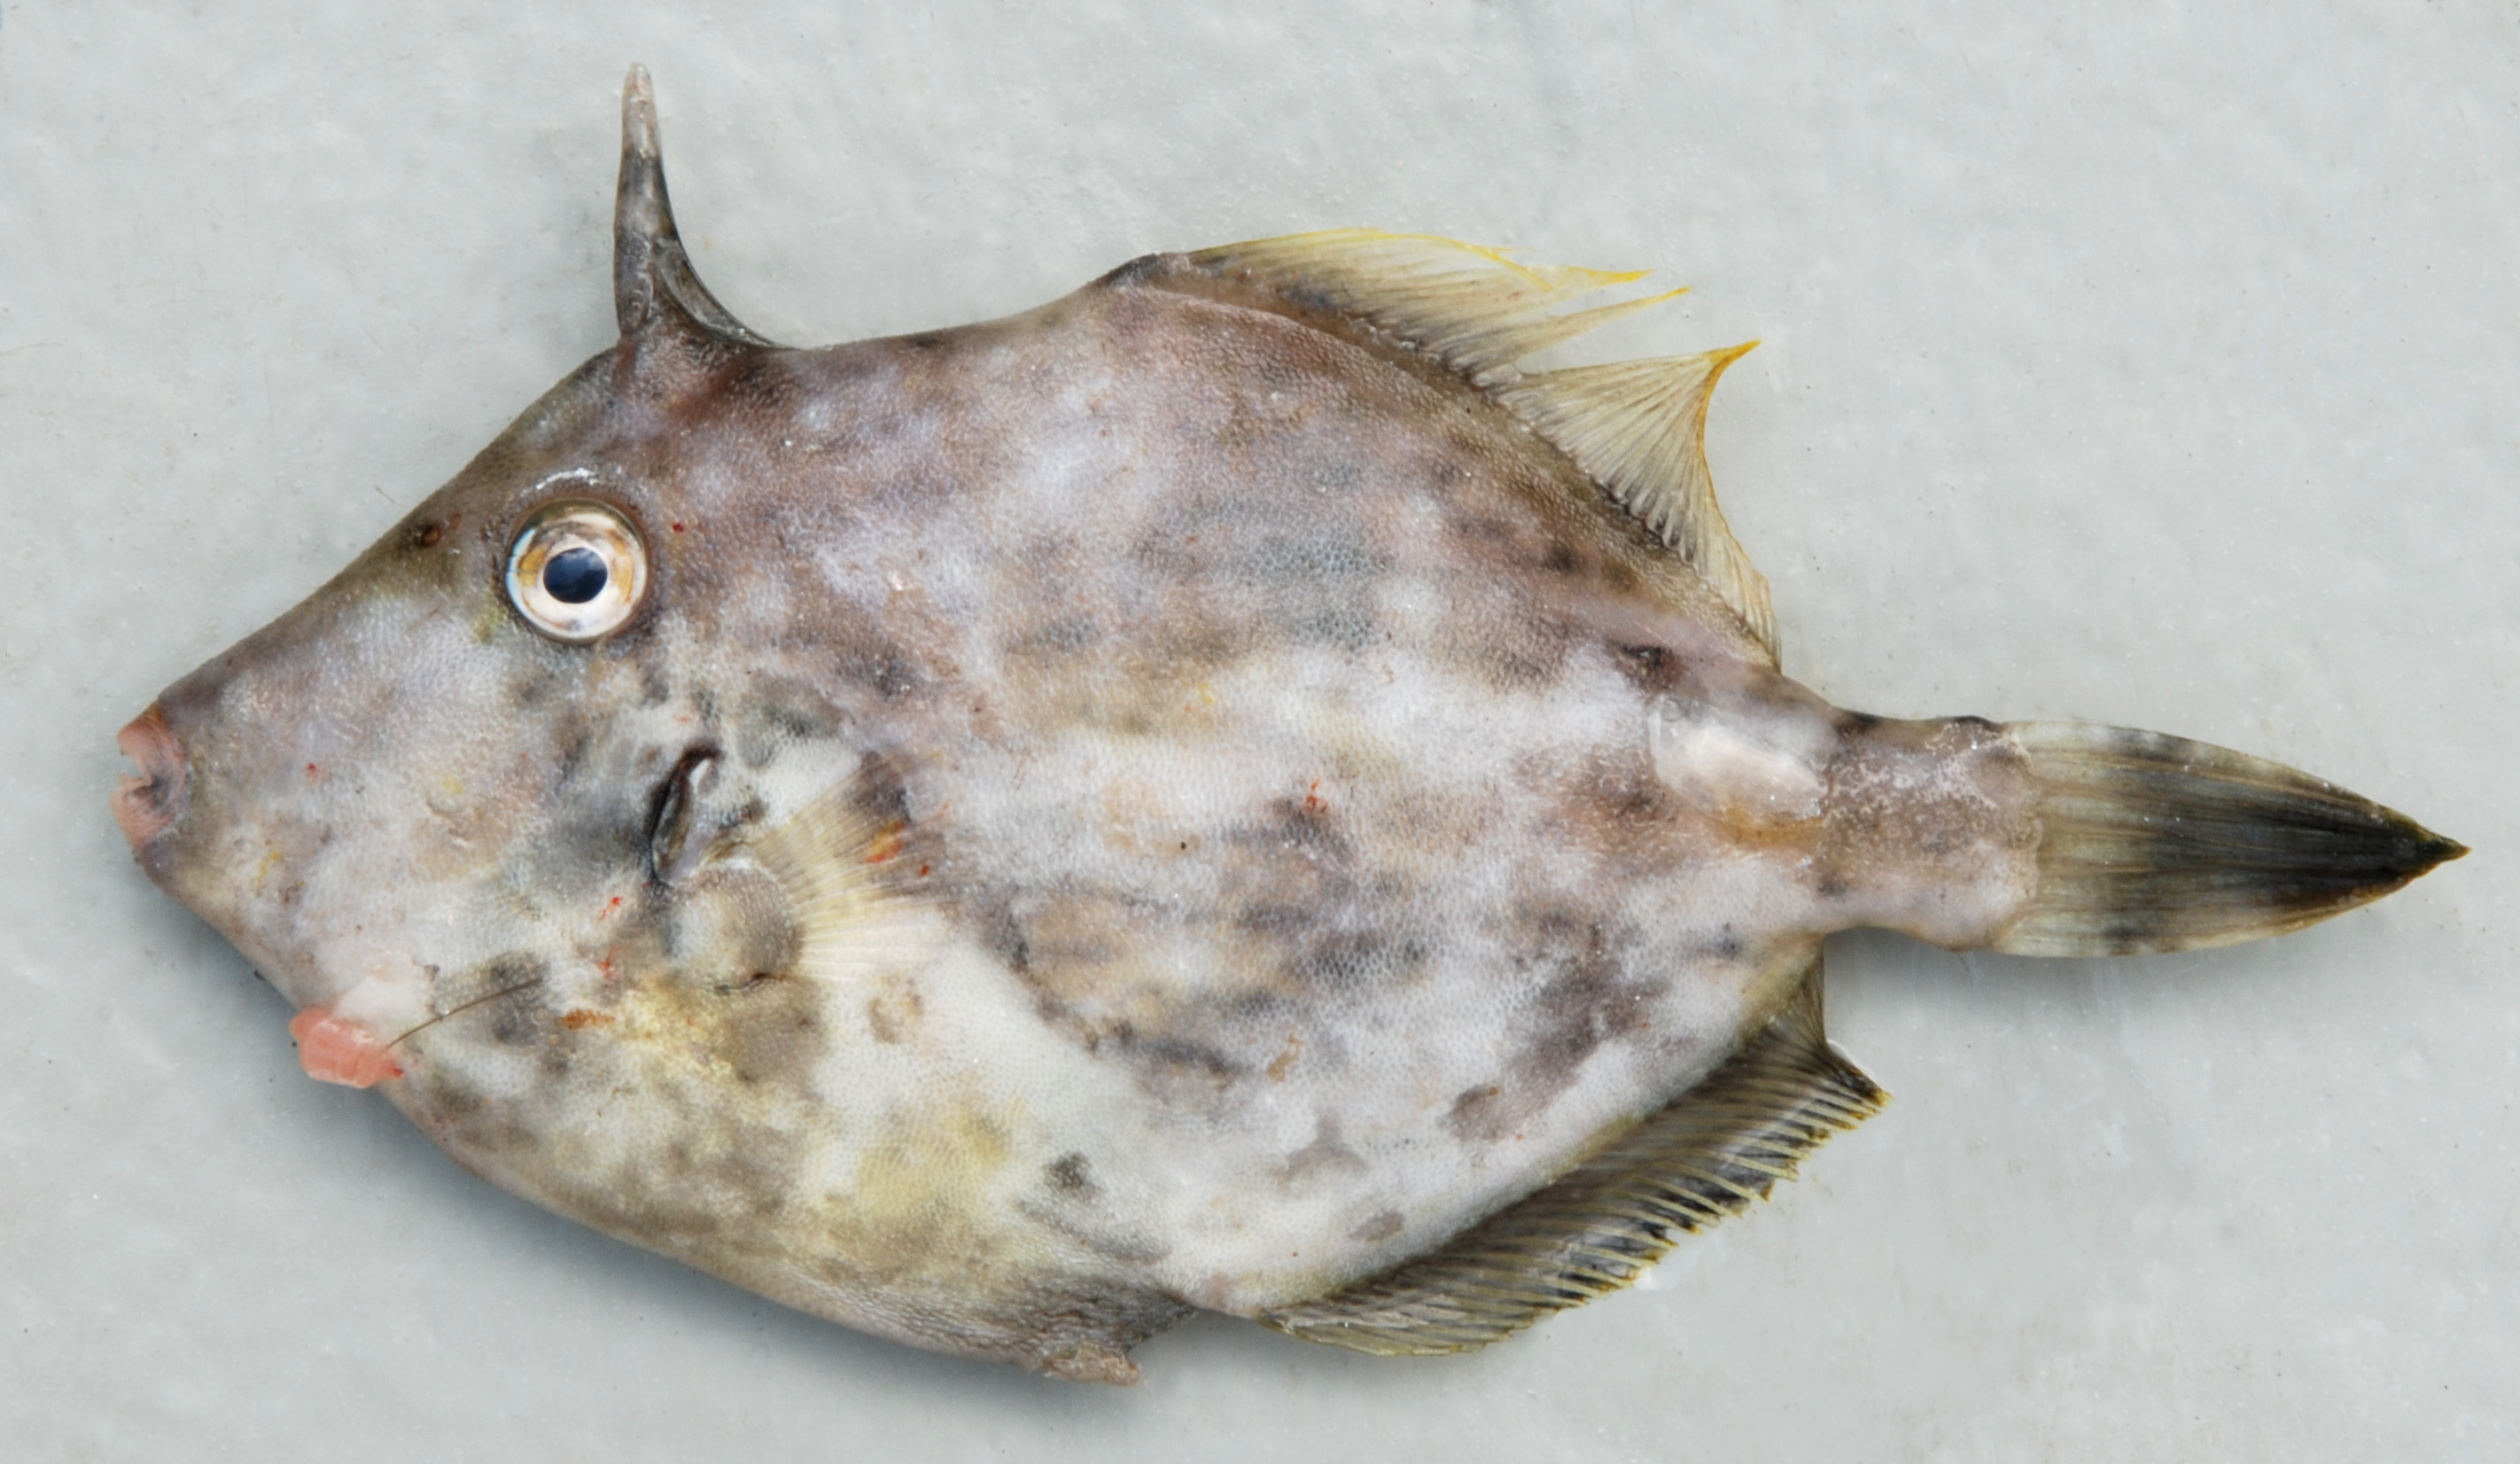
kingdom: Animalia
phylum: Chordata
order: Tetraodontiformes
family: Monacanthidae
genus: Stephanolepis
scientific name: Stephanolepis auratus
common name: Porky
